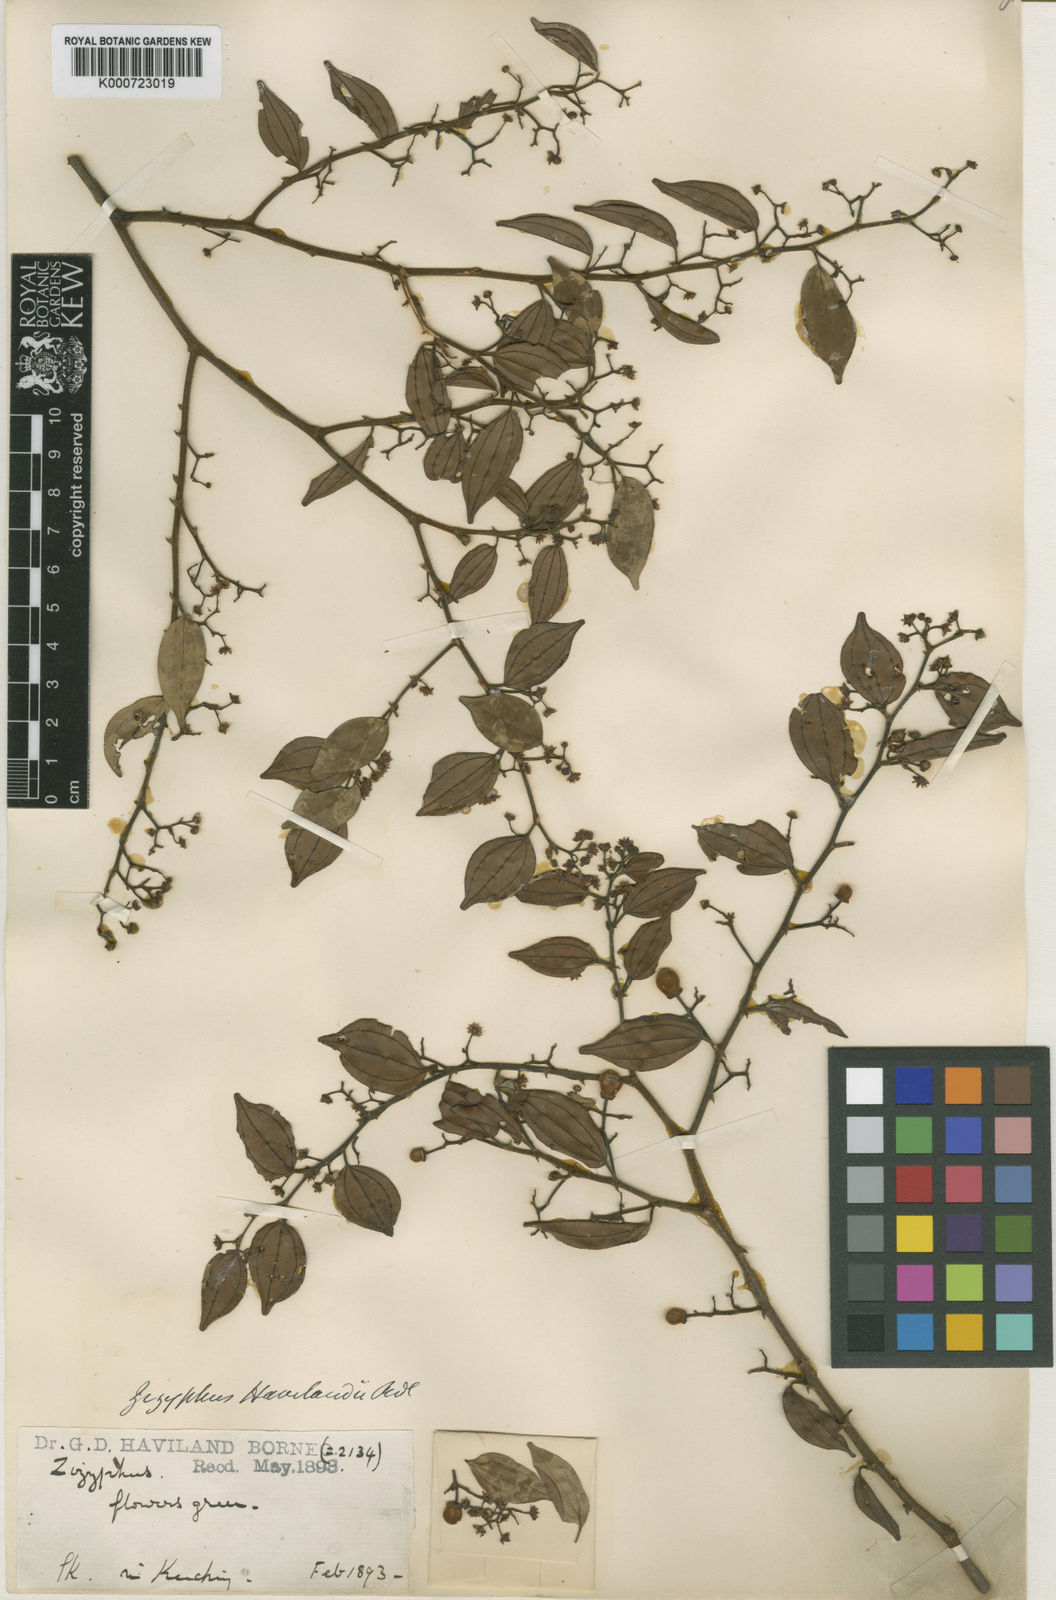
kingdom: Plantae
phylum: Tracheophyta
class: Magnoliopsida
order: Rosales
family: Rhamnaceae
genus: Ziziphus
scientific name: Ziziphus havilandii
